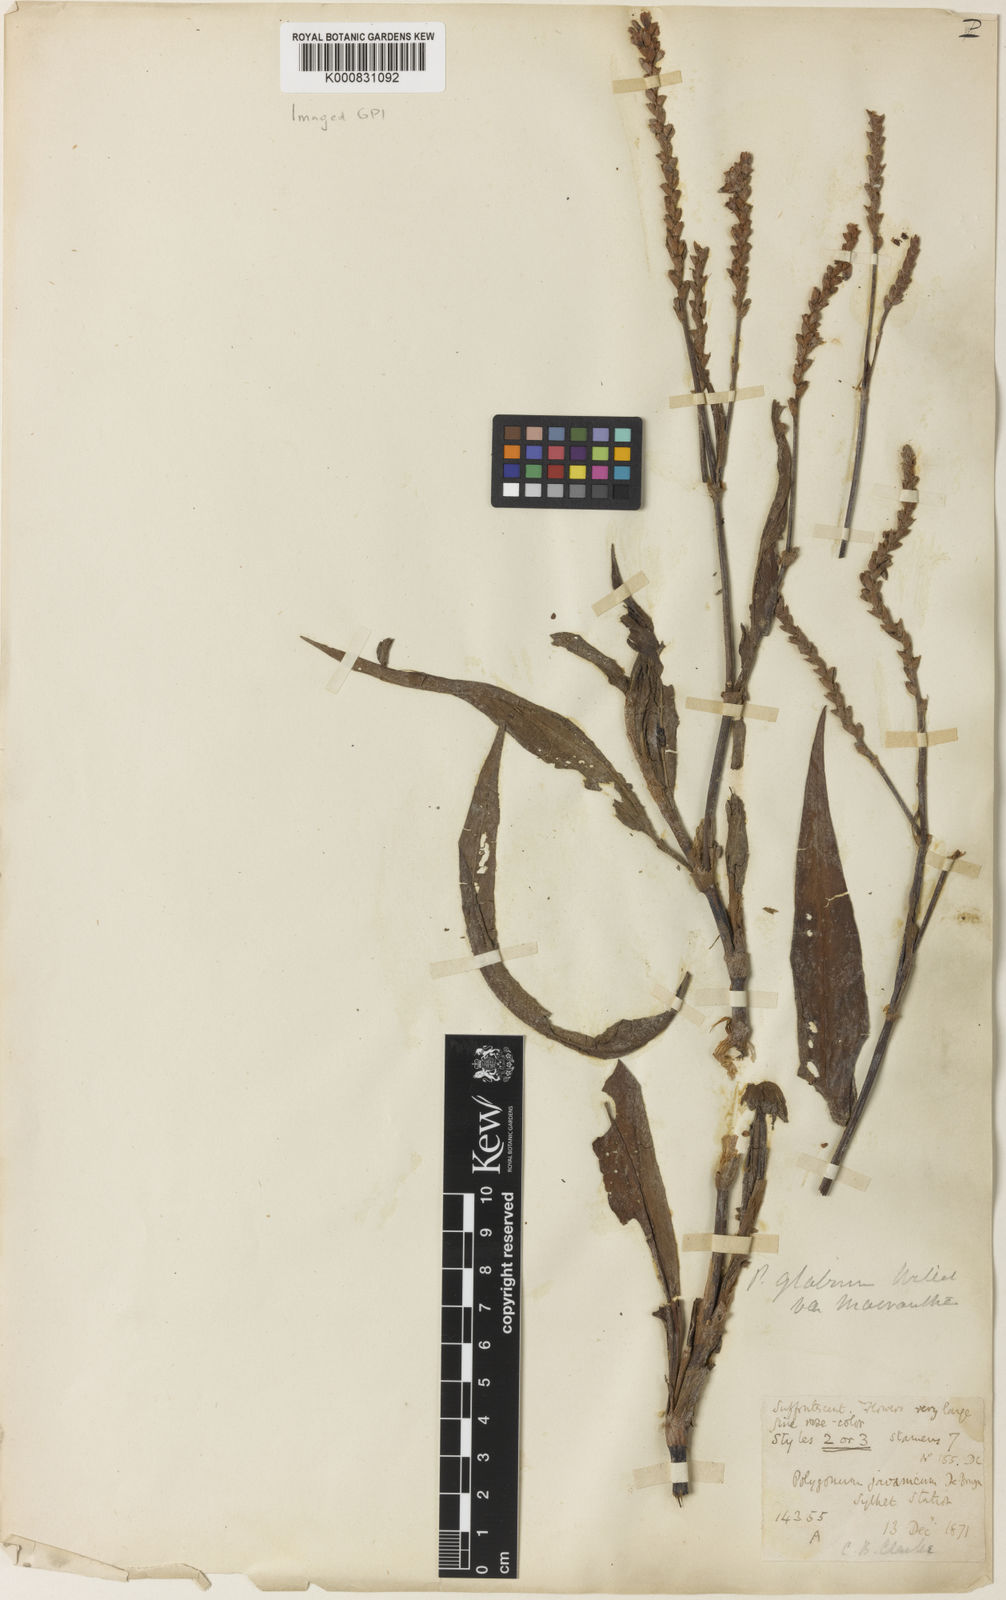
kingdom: Plantae
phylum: Tracheophyta
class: Magnoliopsida
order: Caryophyllales
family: Polygonaceae
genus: Persicaria
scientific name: Persicaria
